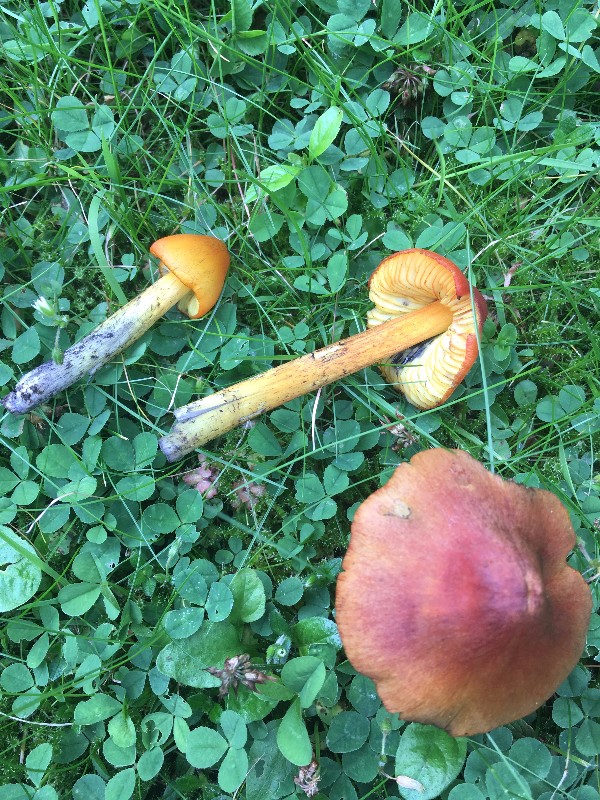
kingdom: Fungi
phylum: Basidiomycota
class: Agaricomycetes
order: Agaricales
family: Hygrophoraceae
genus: Hygrocybe
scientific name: Hygrocybe conica
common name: kegle-vokshat
